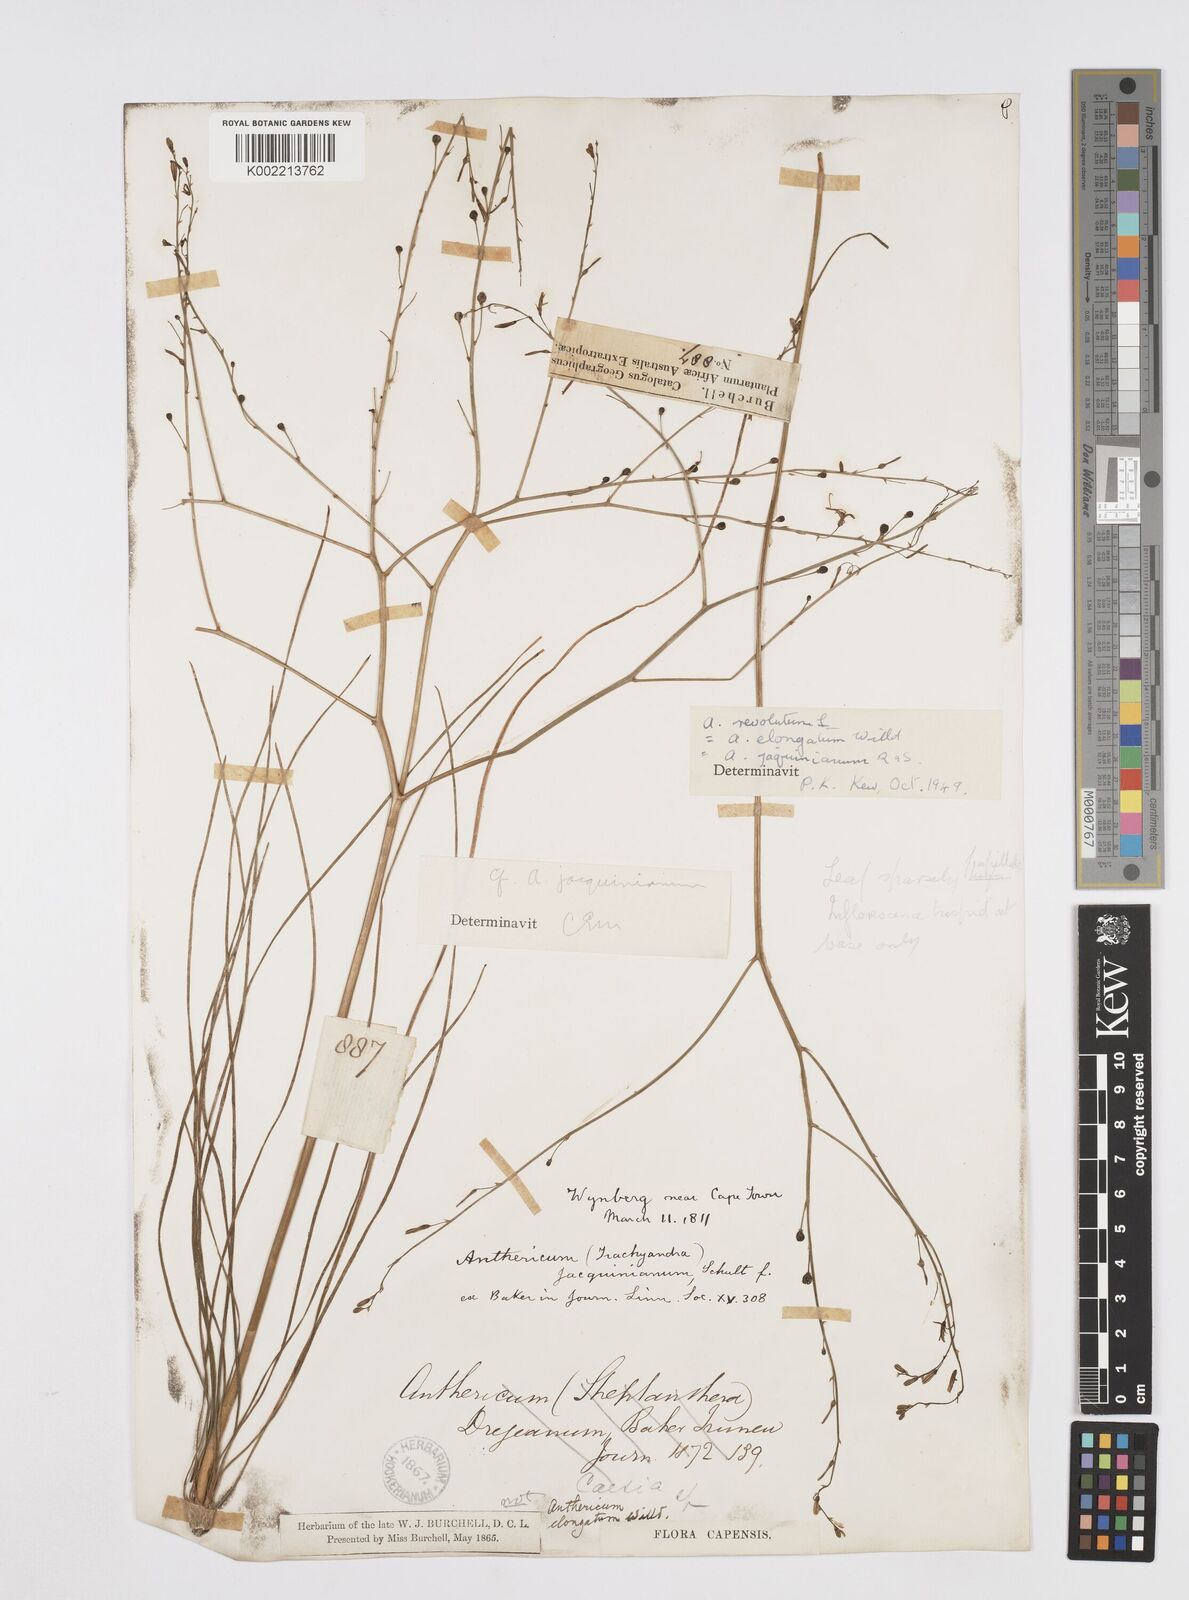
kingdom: Plantae
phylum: Tracheophyta
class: Liliopsida
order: Asparagales
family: Asphodelaceae
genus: Trachyandra
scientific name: Trachyandra revoluta
